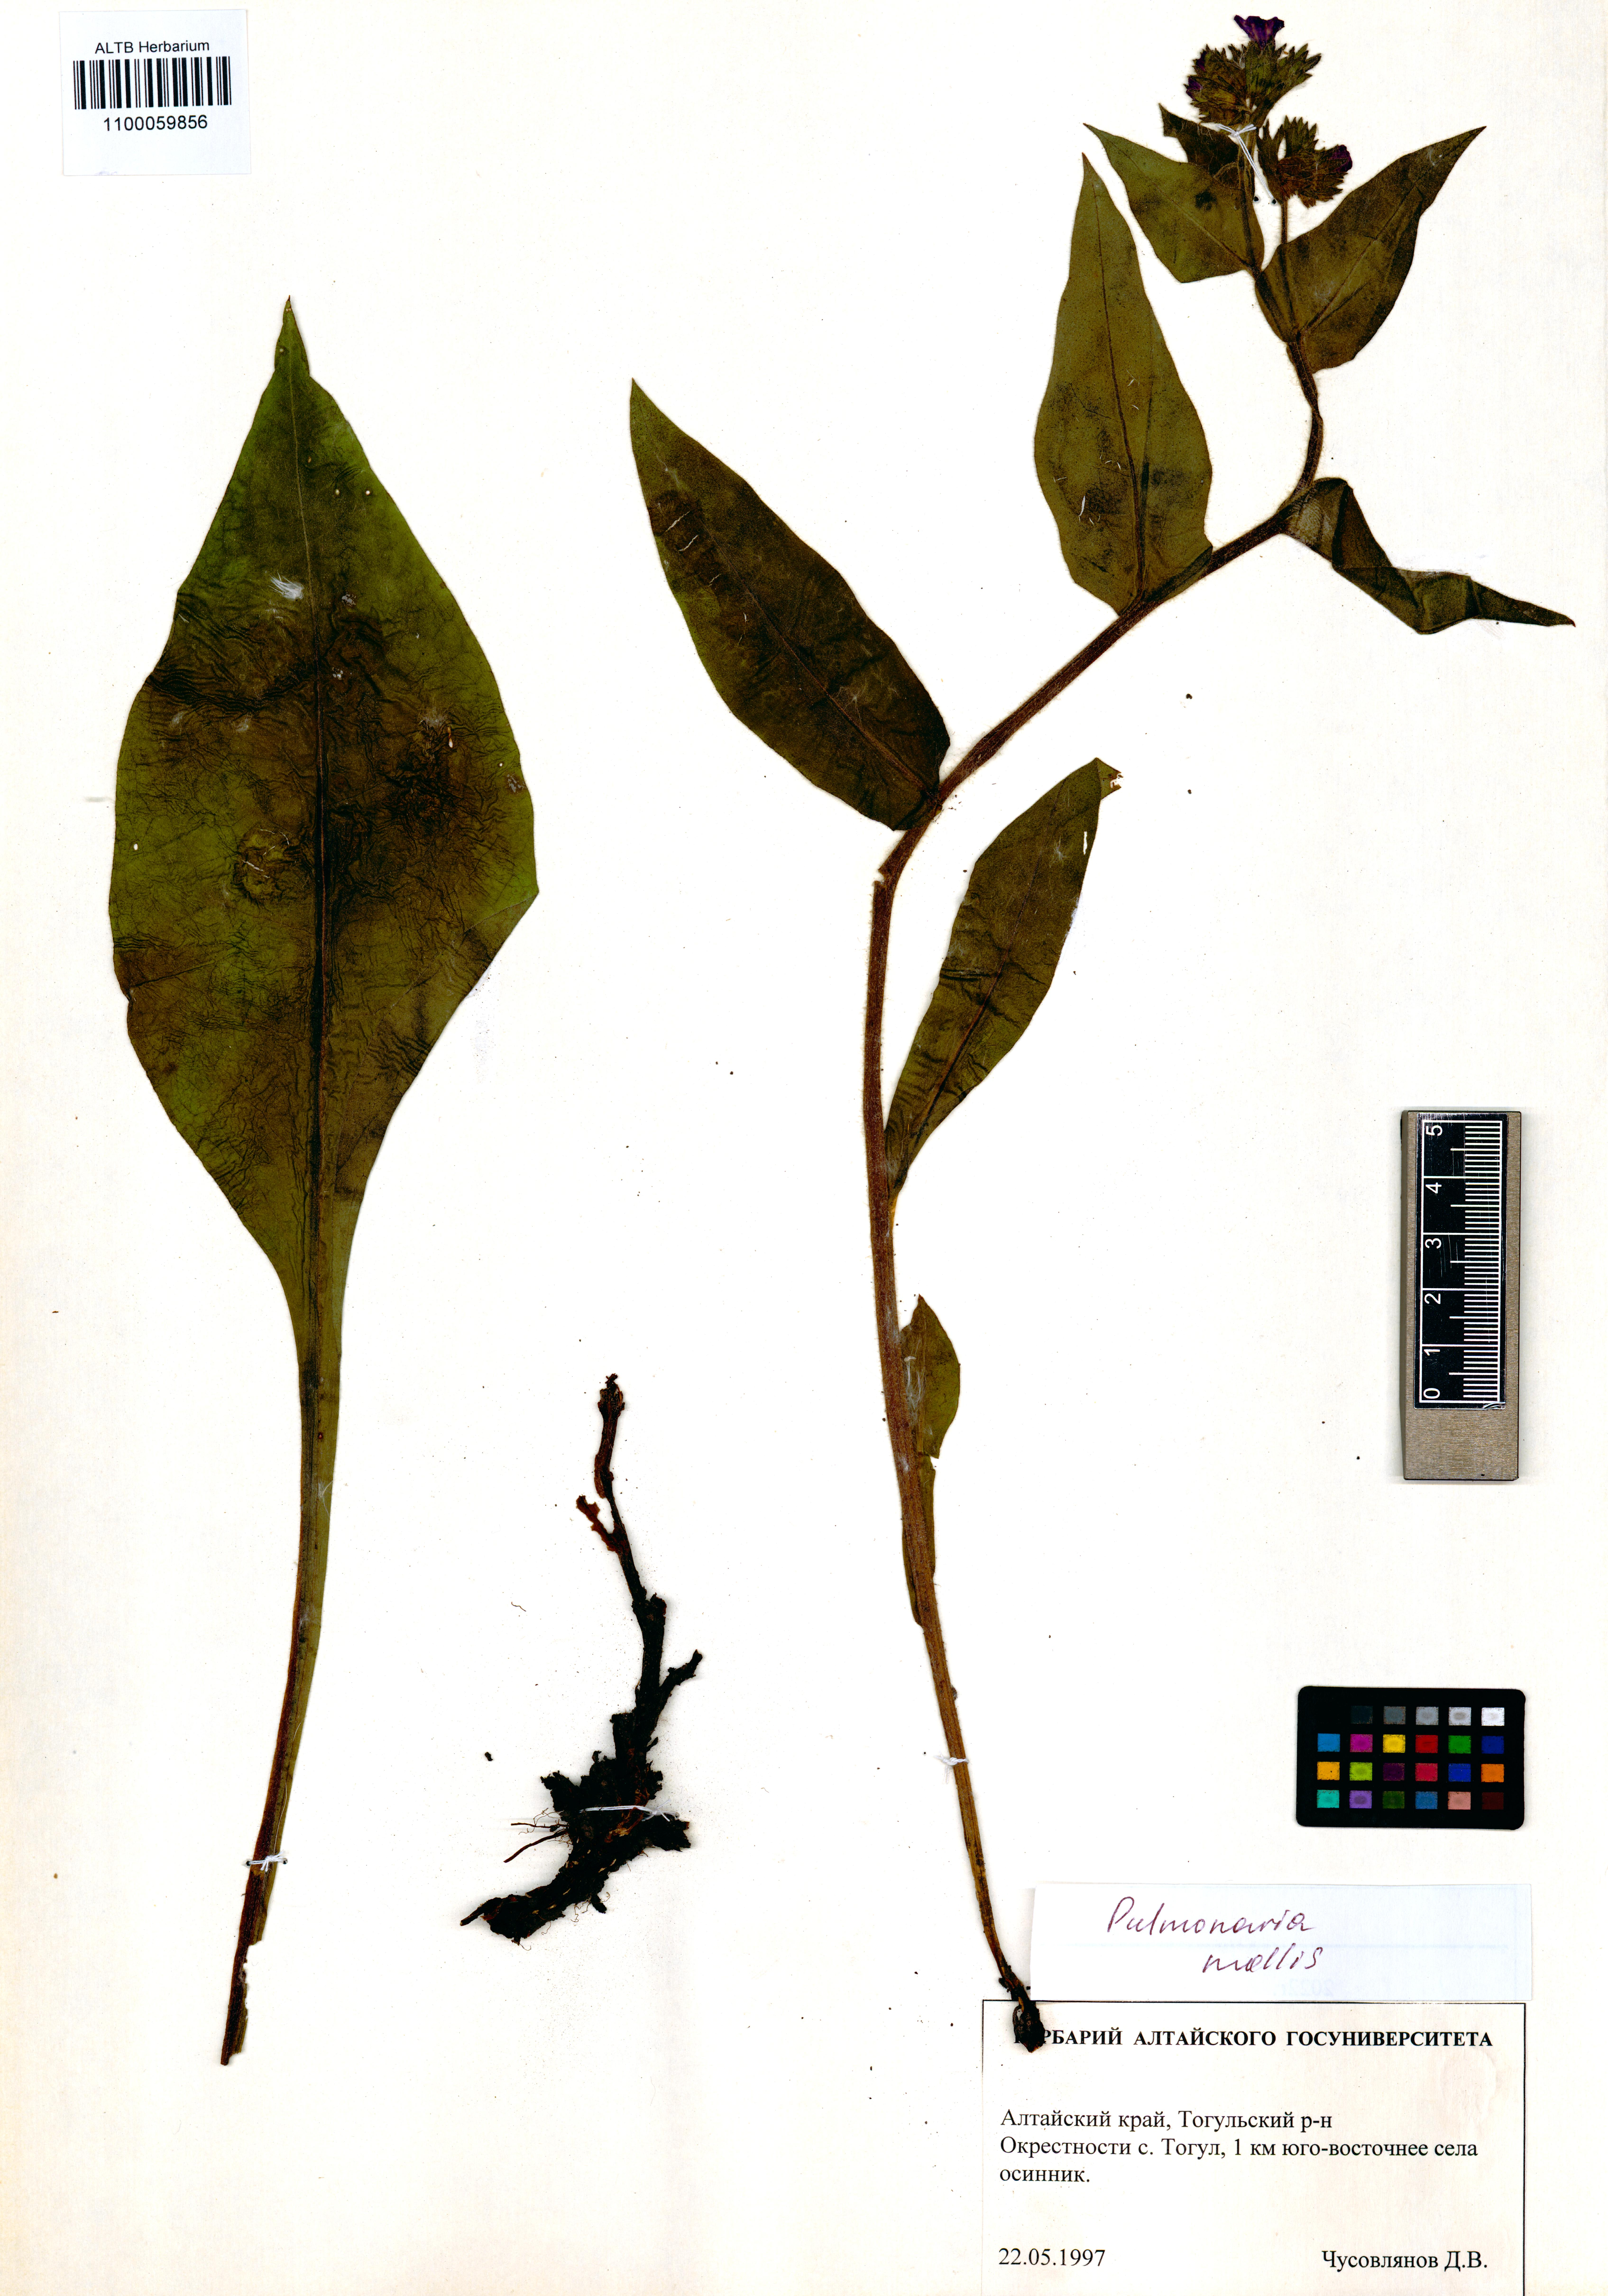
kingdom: Plantae
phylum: Tracheophyta
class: Magnoliopsida
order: Boraginales
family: Boraginaceae
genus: Pulmonaria
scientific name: Pulmonaria mollis
